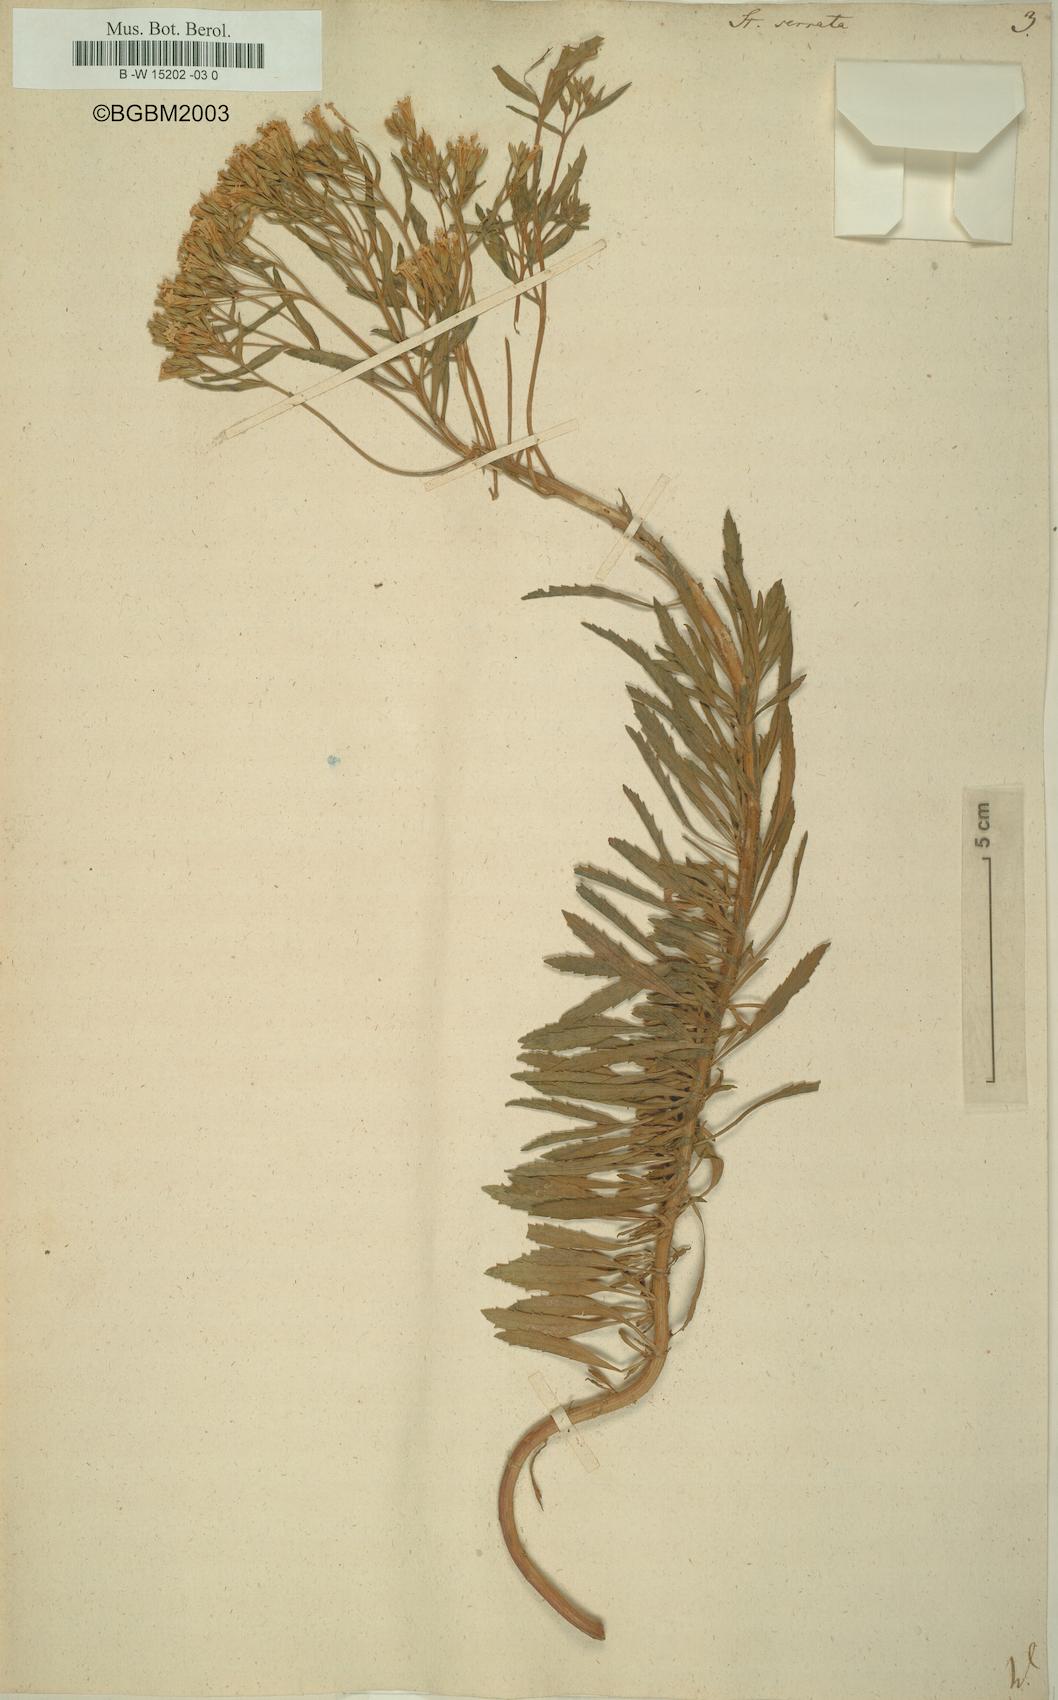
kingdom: Plantae
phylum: Tracheophyta
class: Magnoliopsida
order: Asterales
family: Asteraceae
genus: Stevia
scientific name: Stevia serrata
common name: Sawtooth candyleaf
